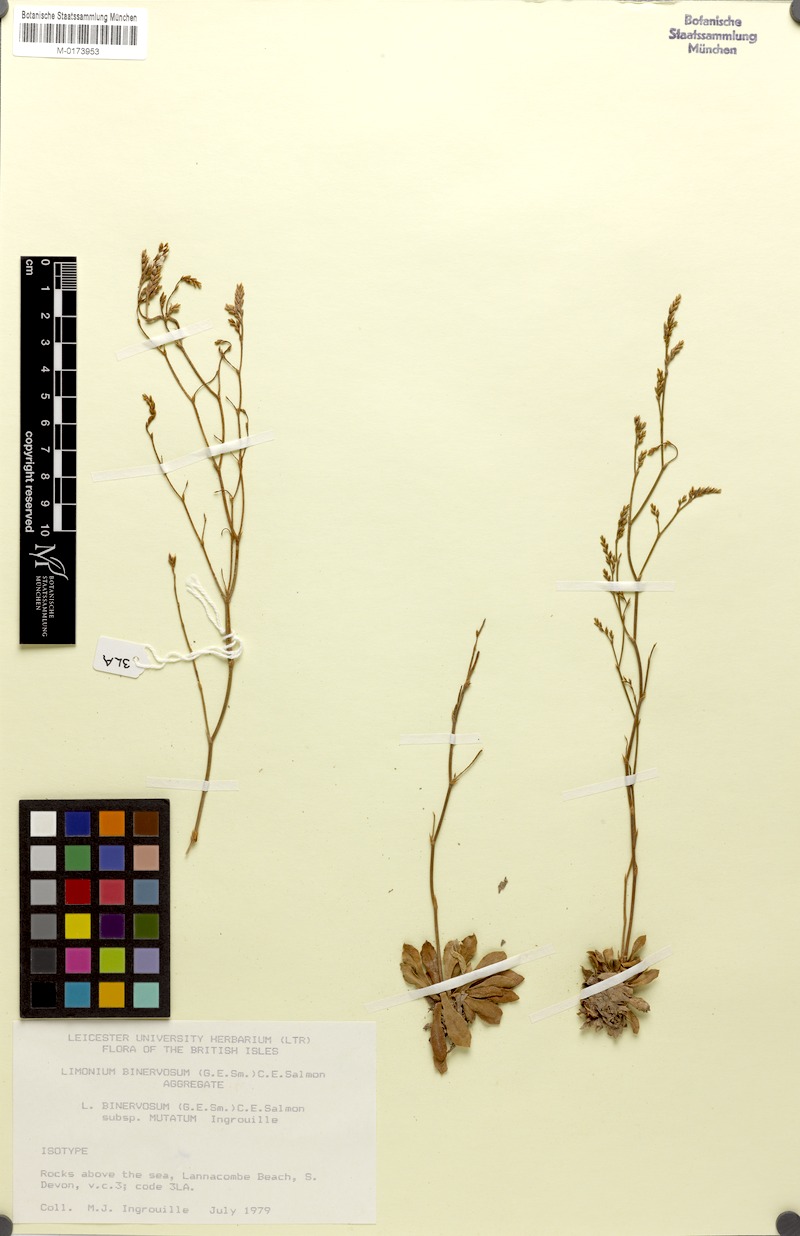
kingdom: Plantae
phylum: Tracheophyta
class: Magnoliopsida
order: Caryophyllales
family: Plumbaginaceae
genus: Limonium
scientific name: Limonium binervosum
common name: Rock sea-lavender
